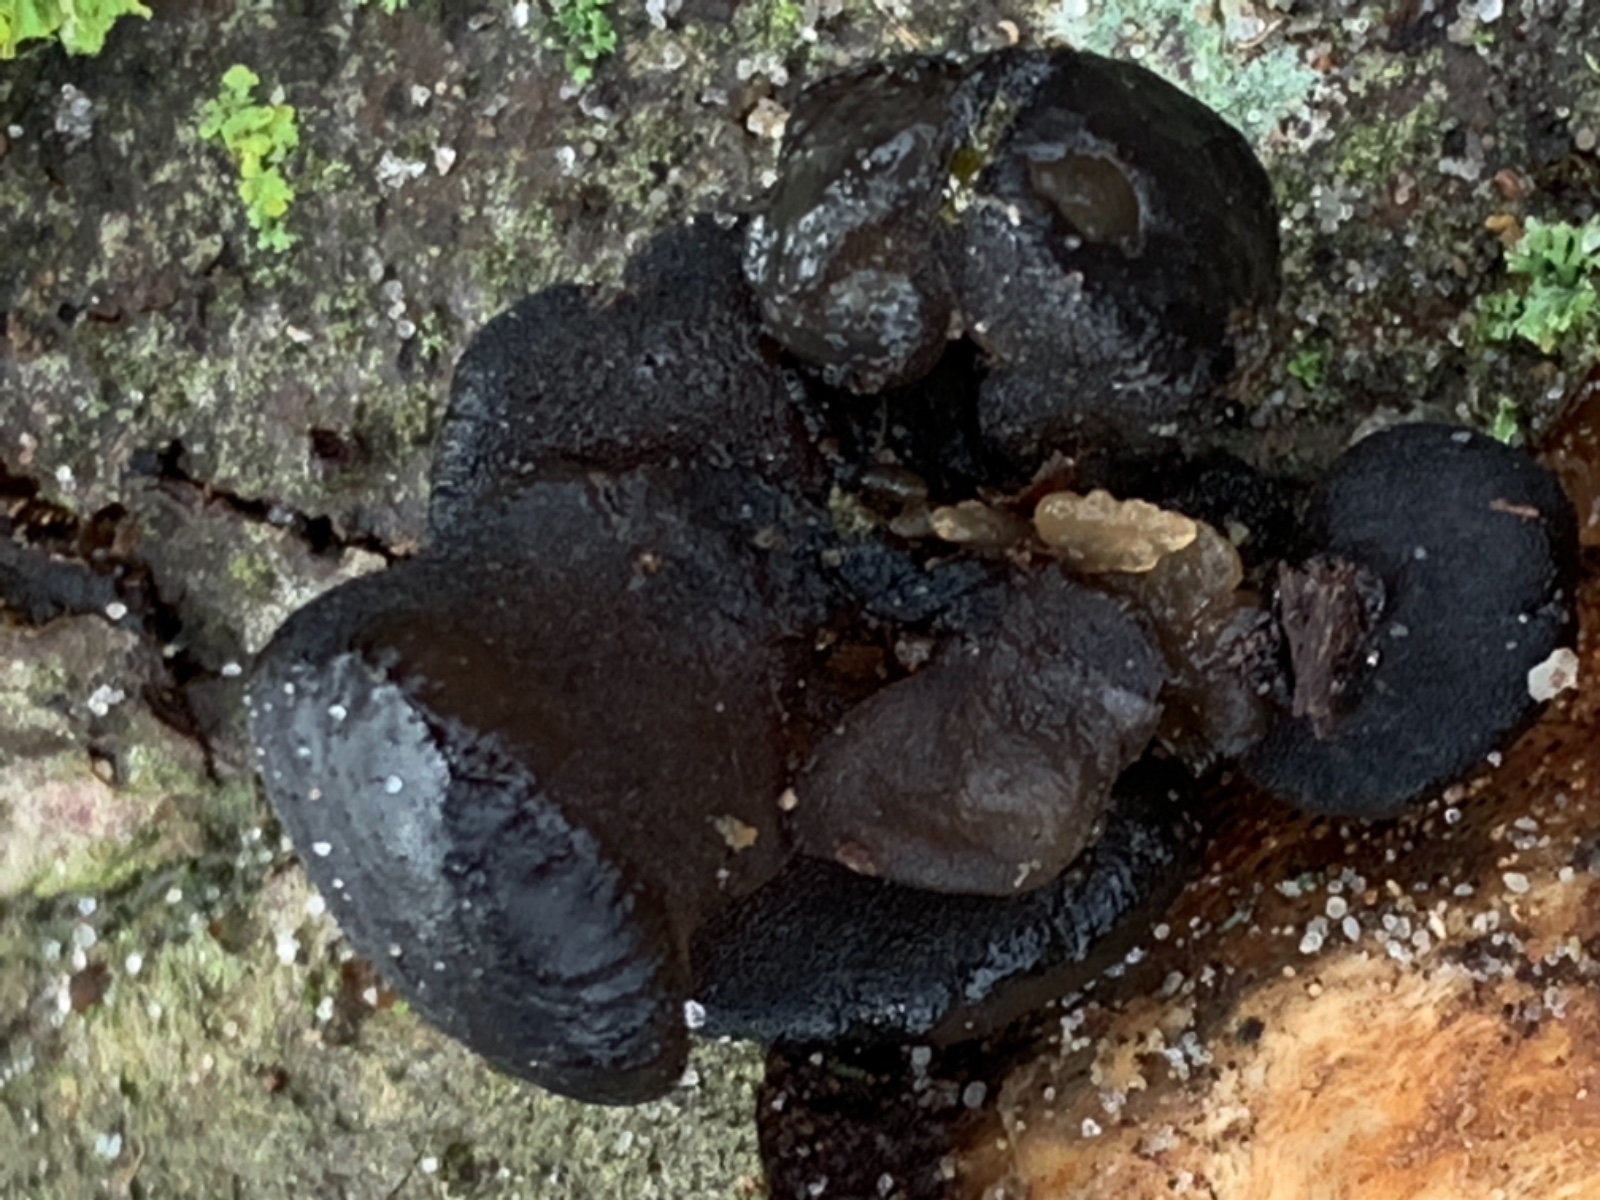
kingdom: Fungi
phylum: Basidiomycota
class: Agaricomycetes
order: Auriculariales
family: Auriculariaceae
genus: Exidia
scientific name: Exidia glandulosa
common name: ege-bævretop
